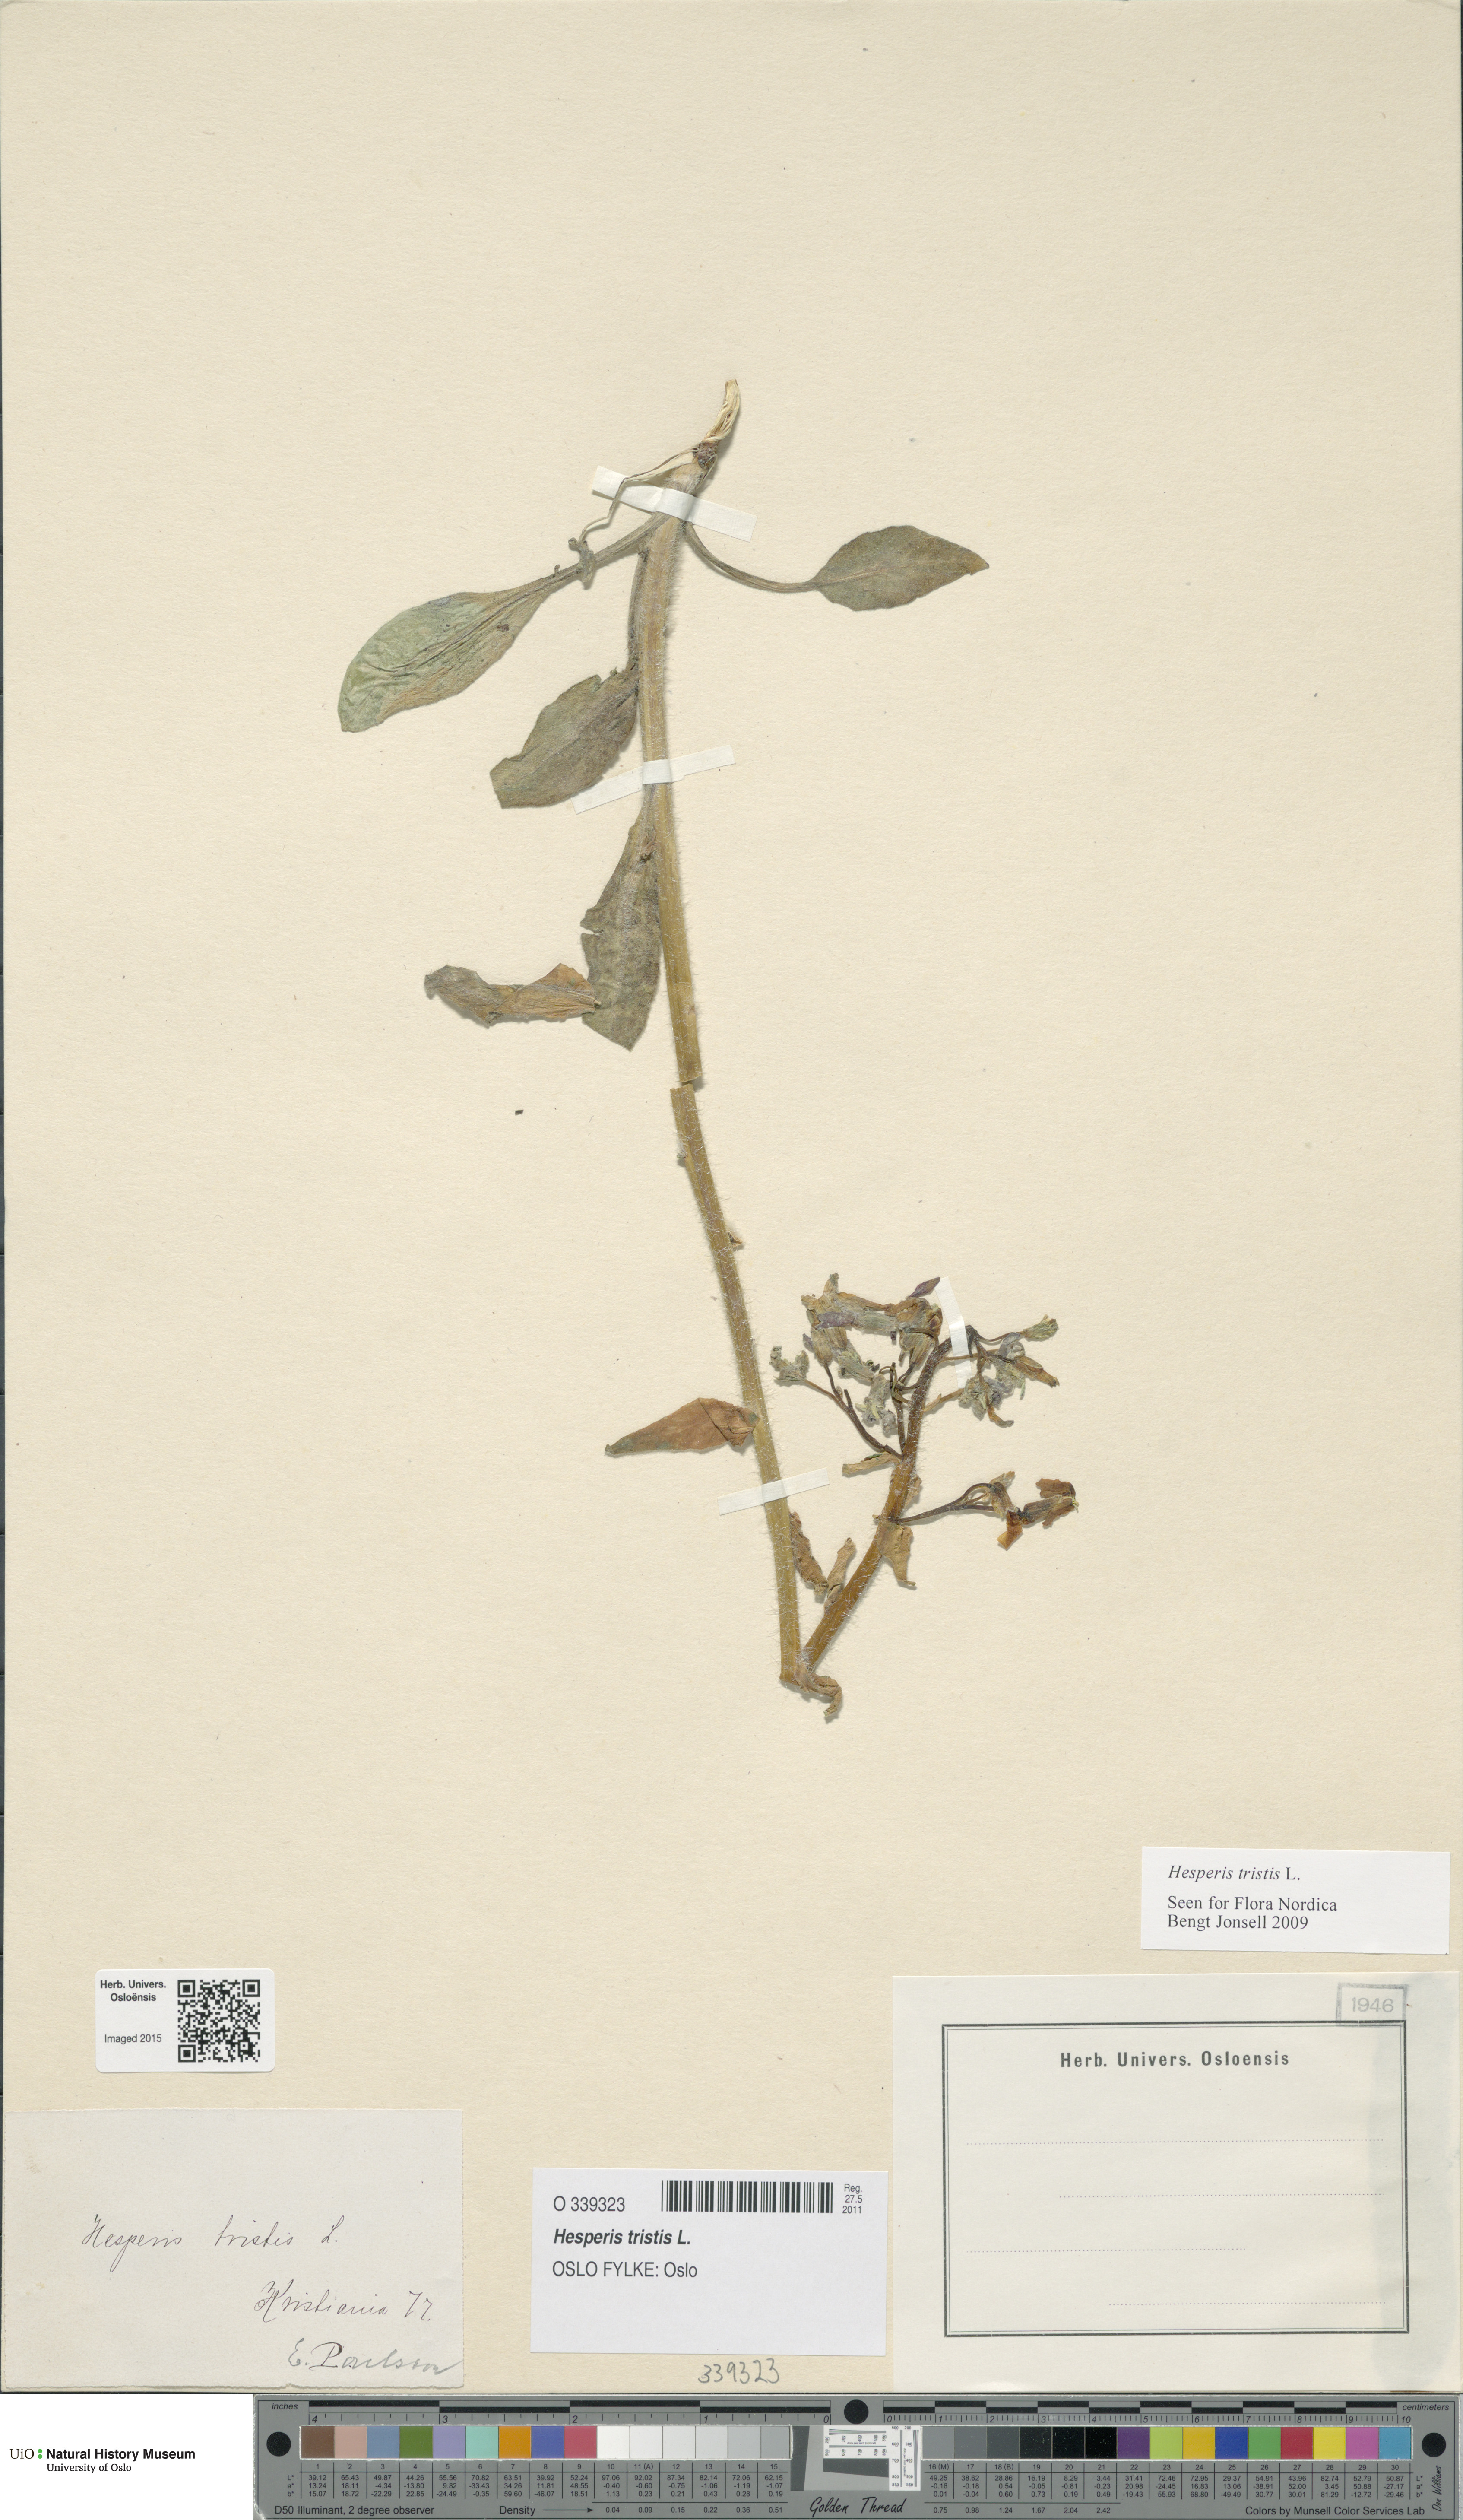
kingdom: Plantae
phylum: Tracheophyta
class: Magnoliopsida
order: Brassicales
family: Brassicaceae
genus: Hesperis
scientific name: Hesperis tristis
